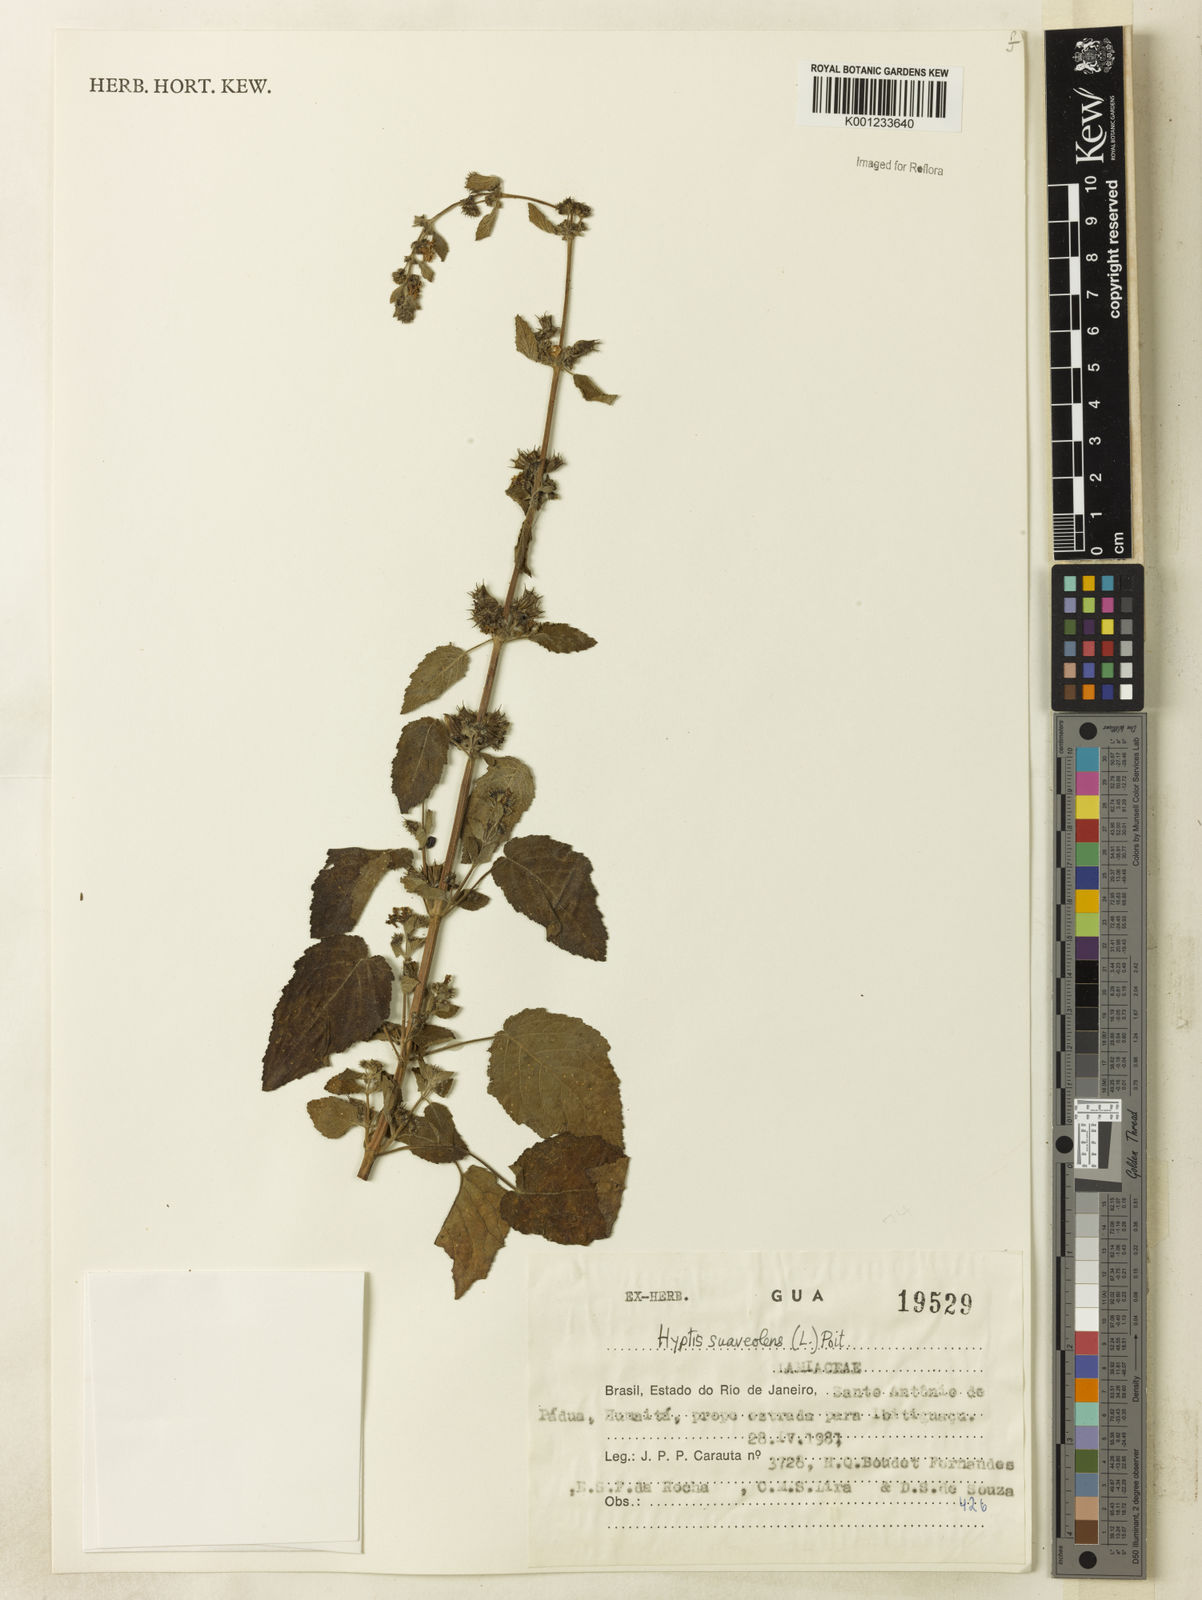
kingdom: Plantae
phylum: Tracheophyta
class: Magnoliopsida
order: Lamiales
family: Lamiaceae
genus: Mesosphaerum
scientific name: Mesosphaerum suaveolens
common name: Pignut
